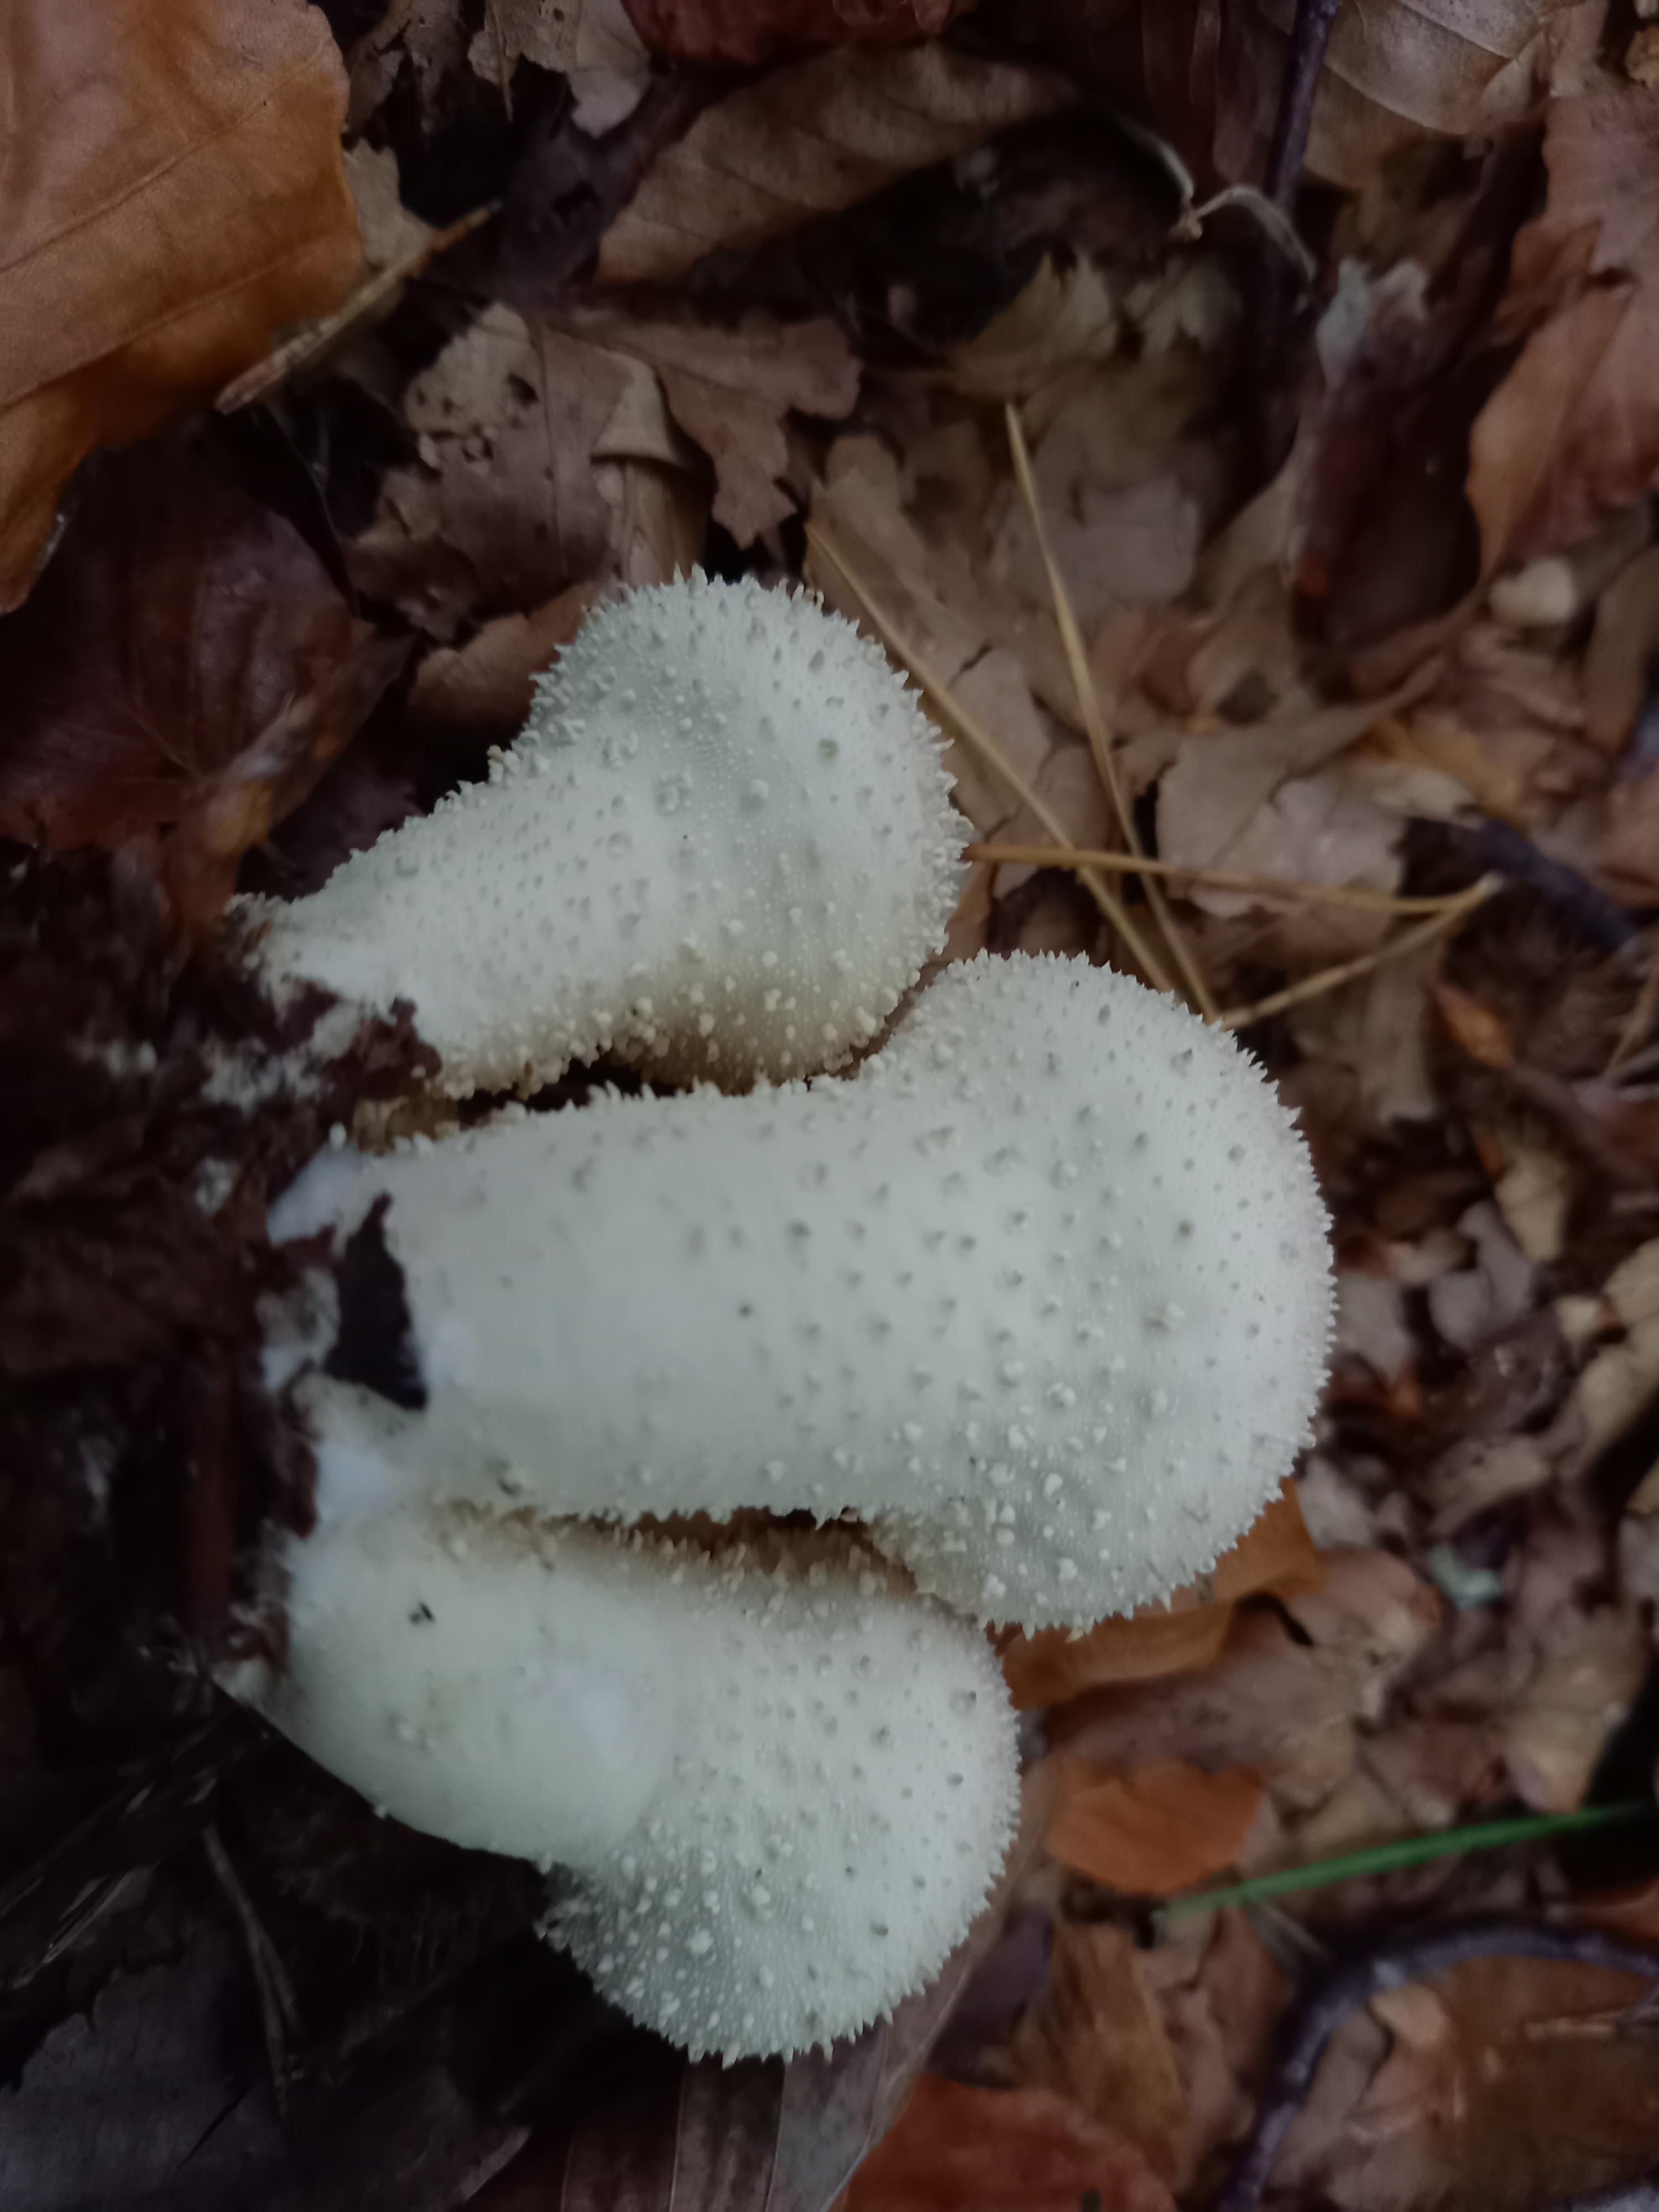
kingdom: Fungi
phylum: Basidiomycota
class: Agaricomycetes
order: Agaricales
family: Lycoperdaceae
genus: Lycoperdon
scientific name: Lycoperdon perlatum
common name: krystal-støvbold
